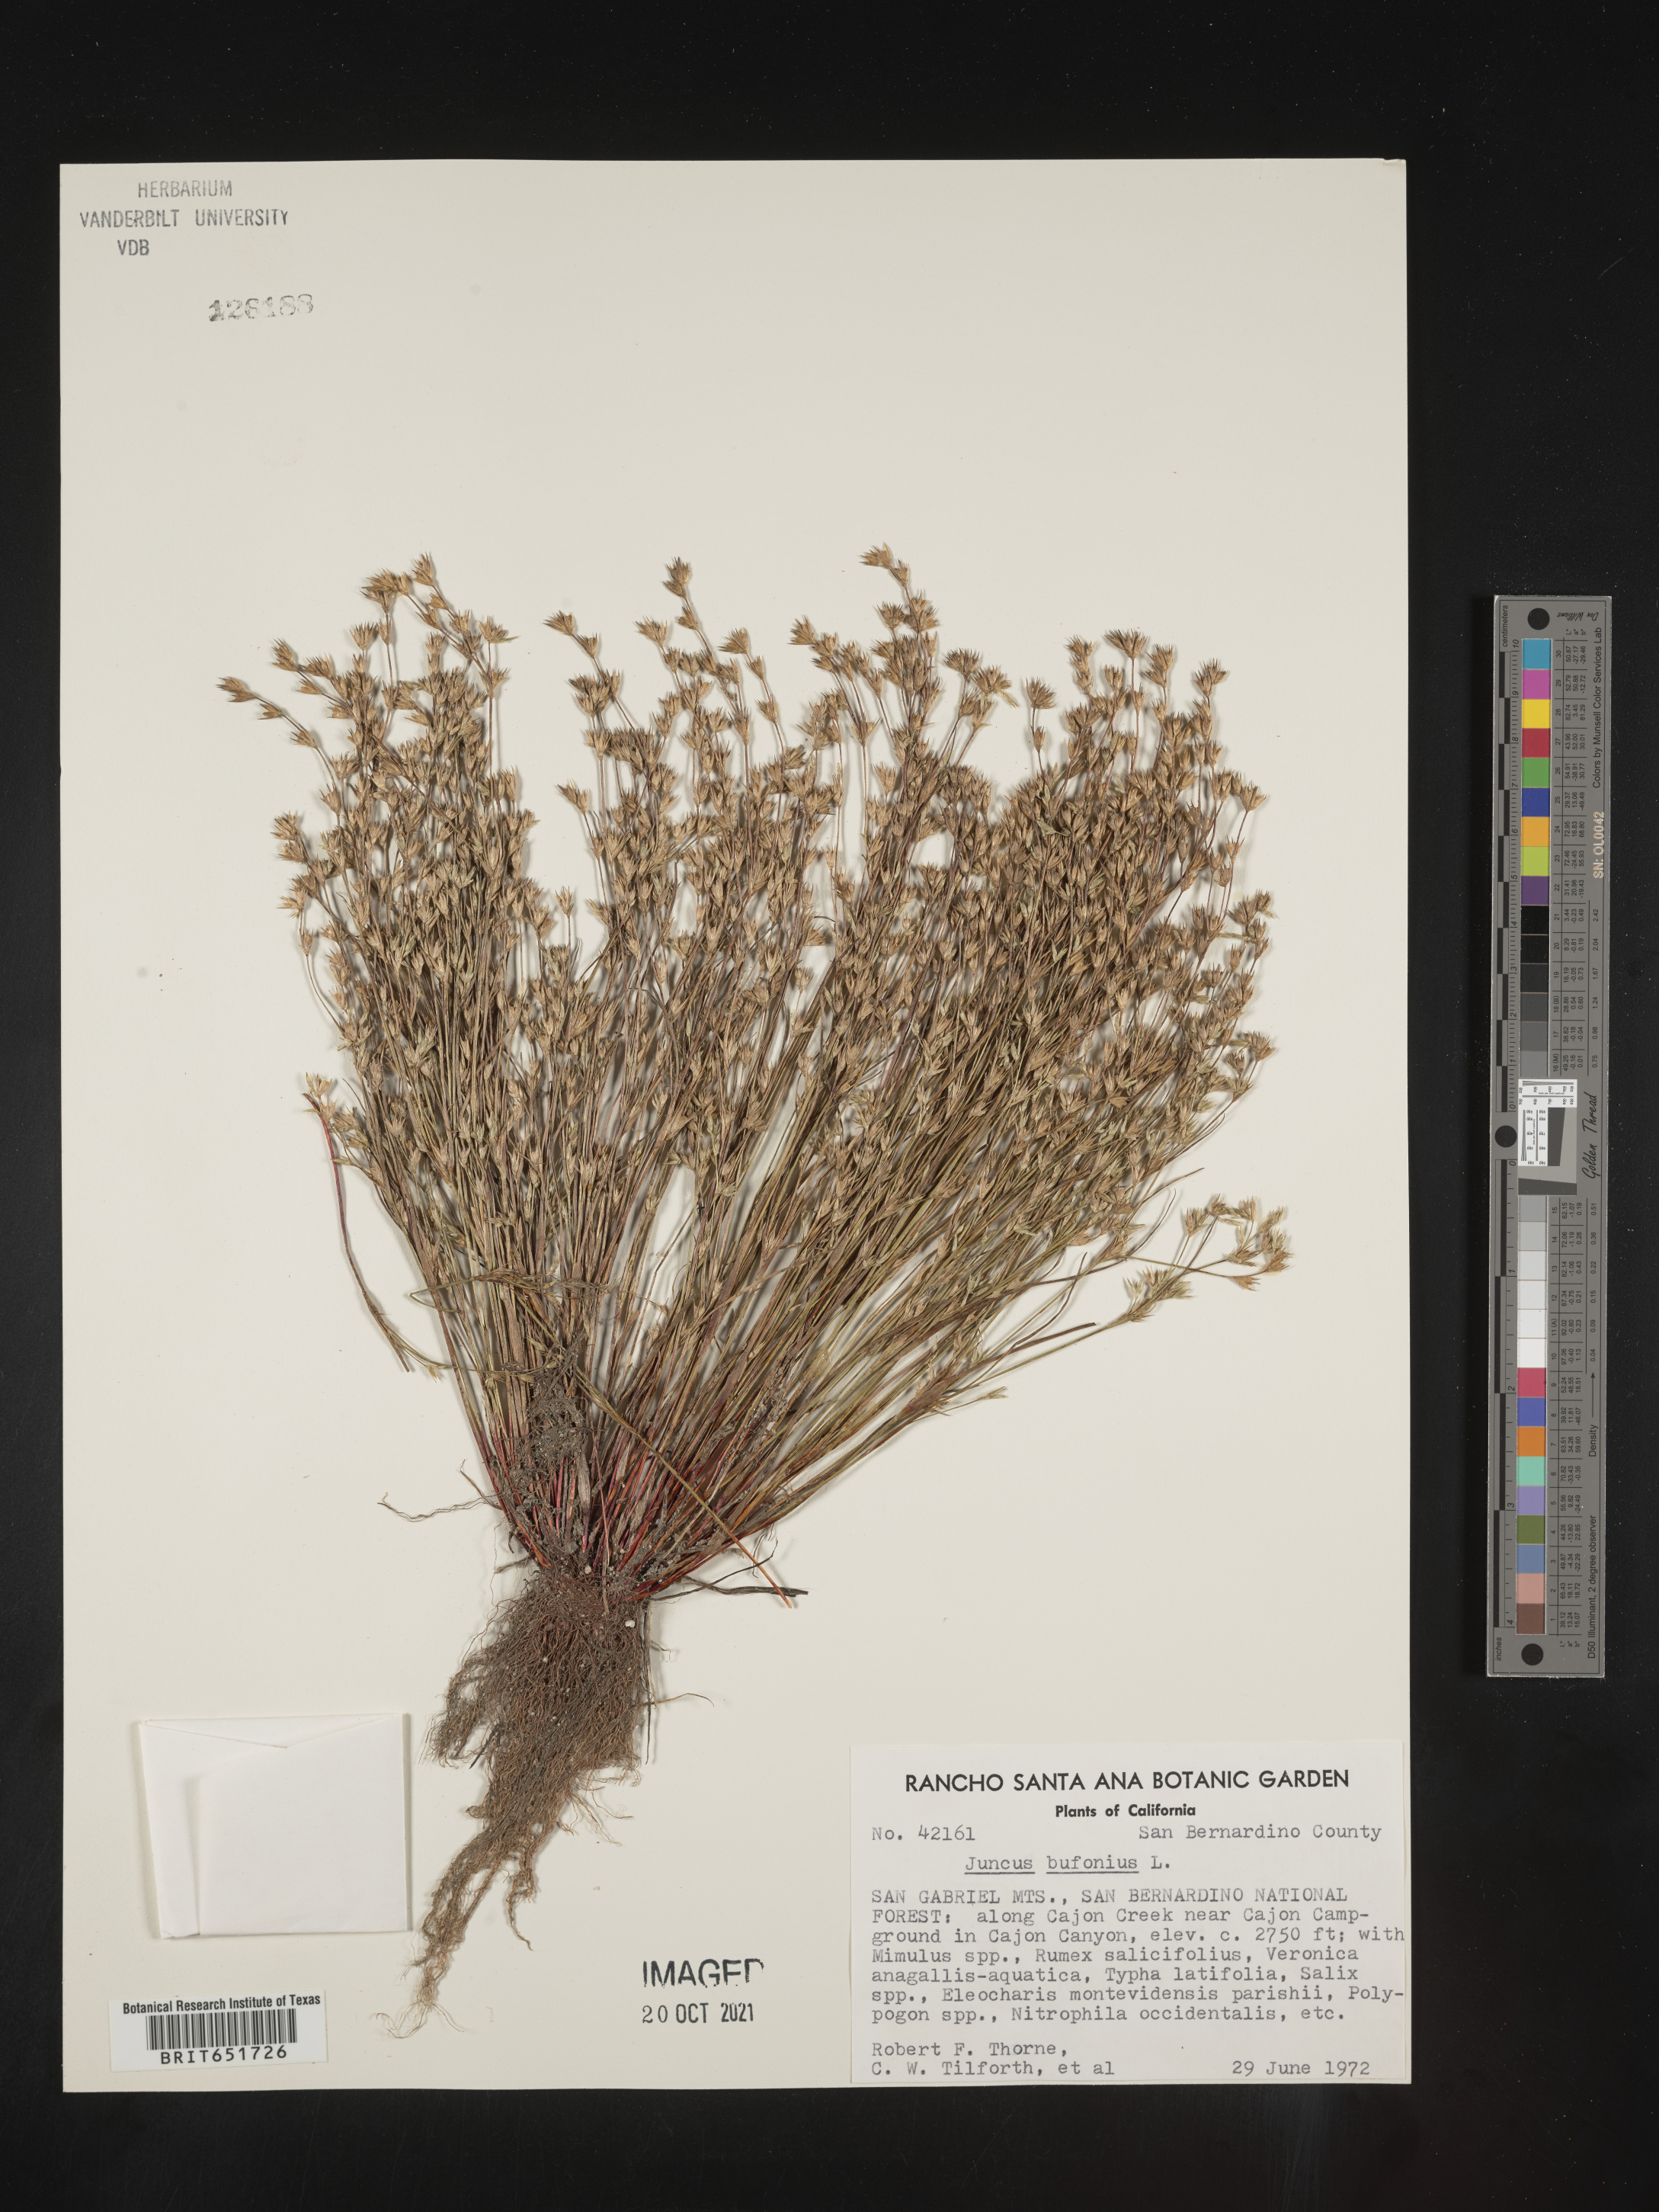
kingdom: Plantae
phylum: Tracheophyta
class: Liliopsida
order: Poales
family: Juncaceae
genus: Juncus
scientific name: Juncus bufonius
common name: Toad rush
